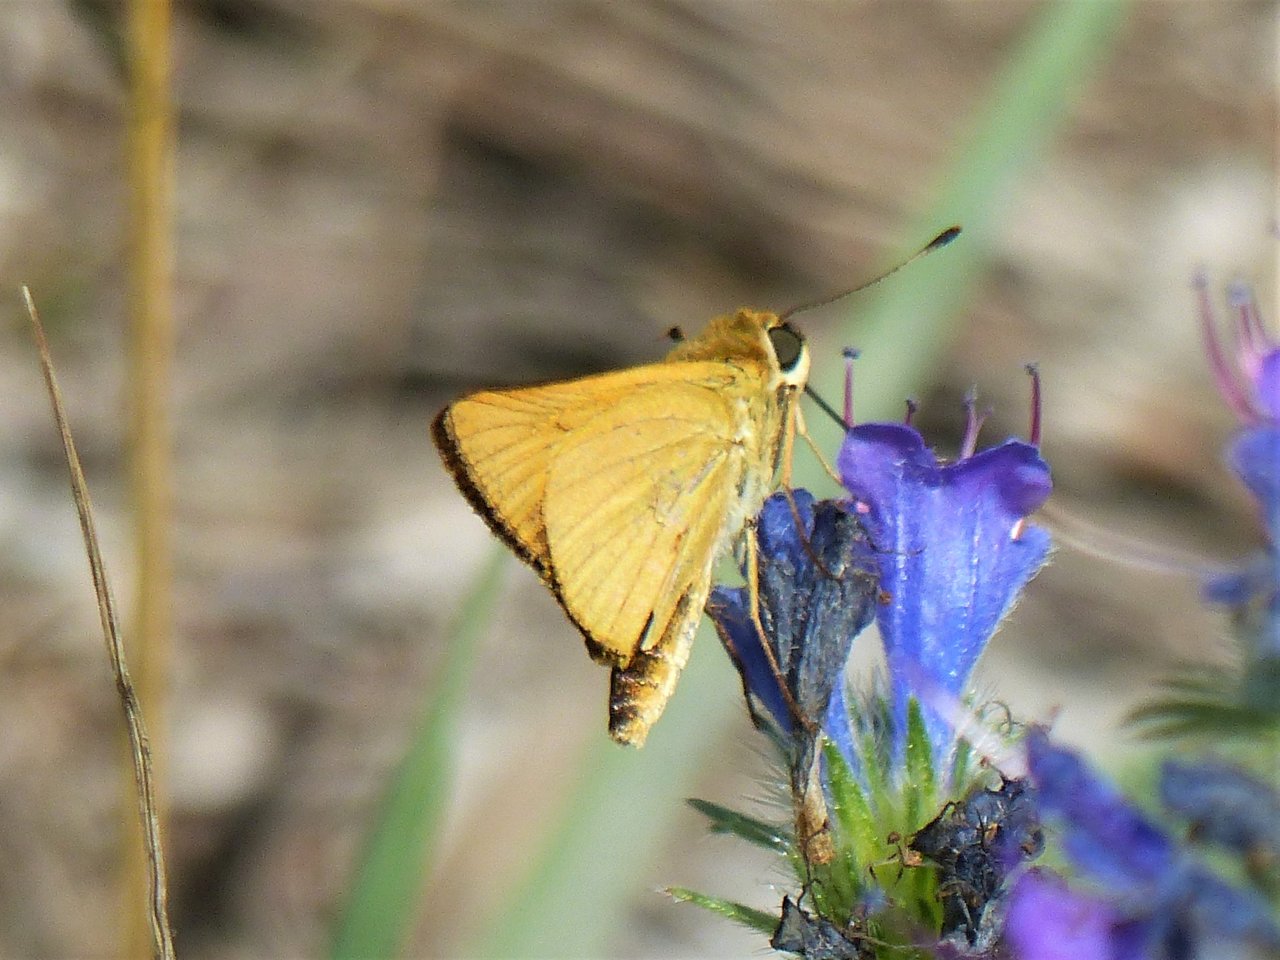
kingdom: Animalia
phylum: Arthropoda
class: Insecta
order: Lepidoptera
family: Hesperiidae
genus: Atrytone
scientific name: Atrytone delaware
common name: Delaware Skipper
